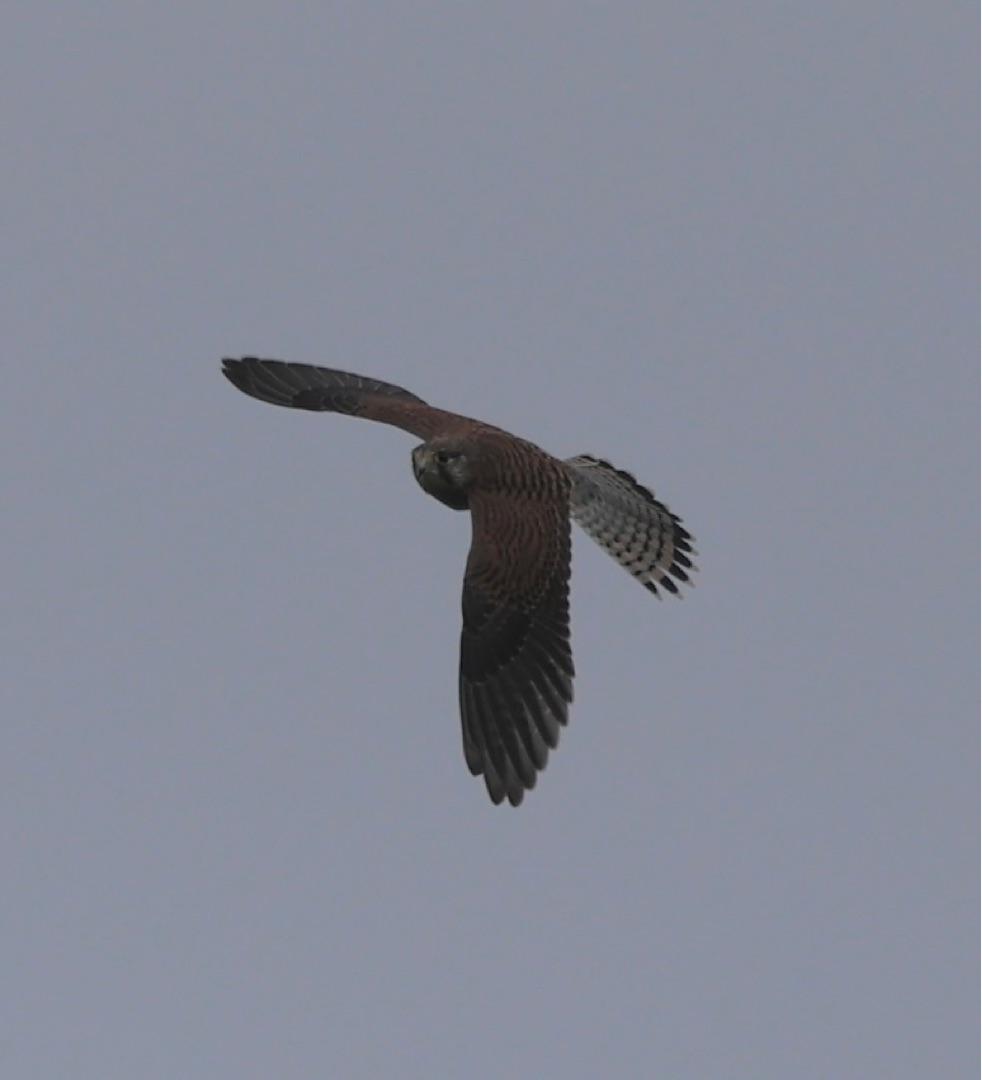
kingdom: Animalia
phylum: Chordata
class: Aves
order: Falconiformes
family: Falconidae
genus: Falco
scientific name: Falco tinnunculus
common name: Tårnfalk
